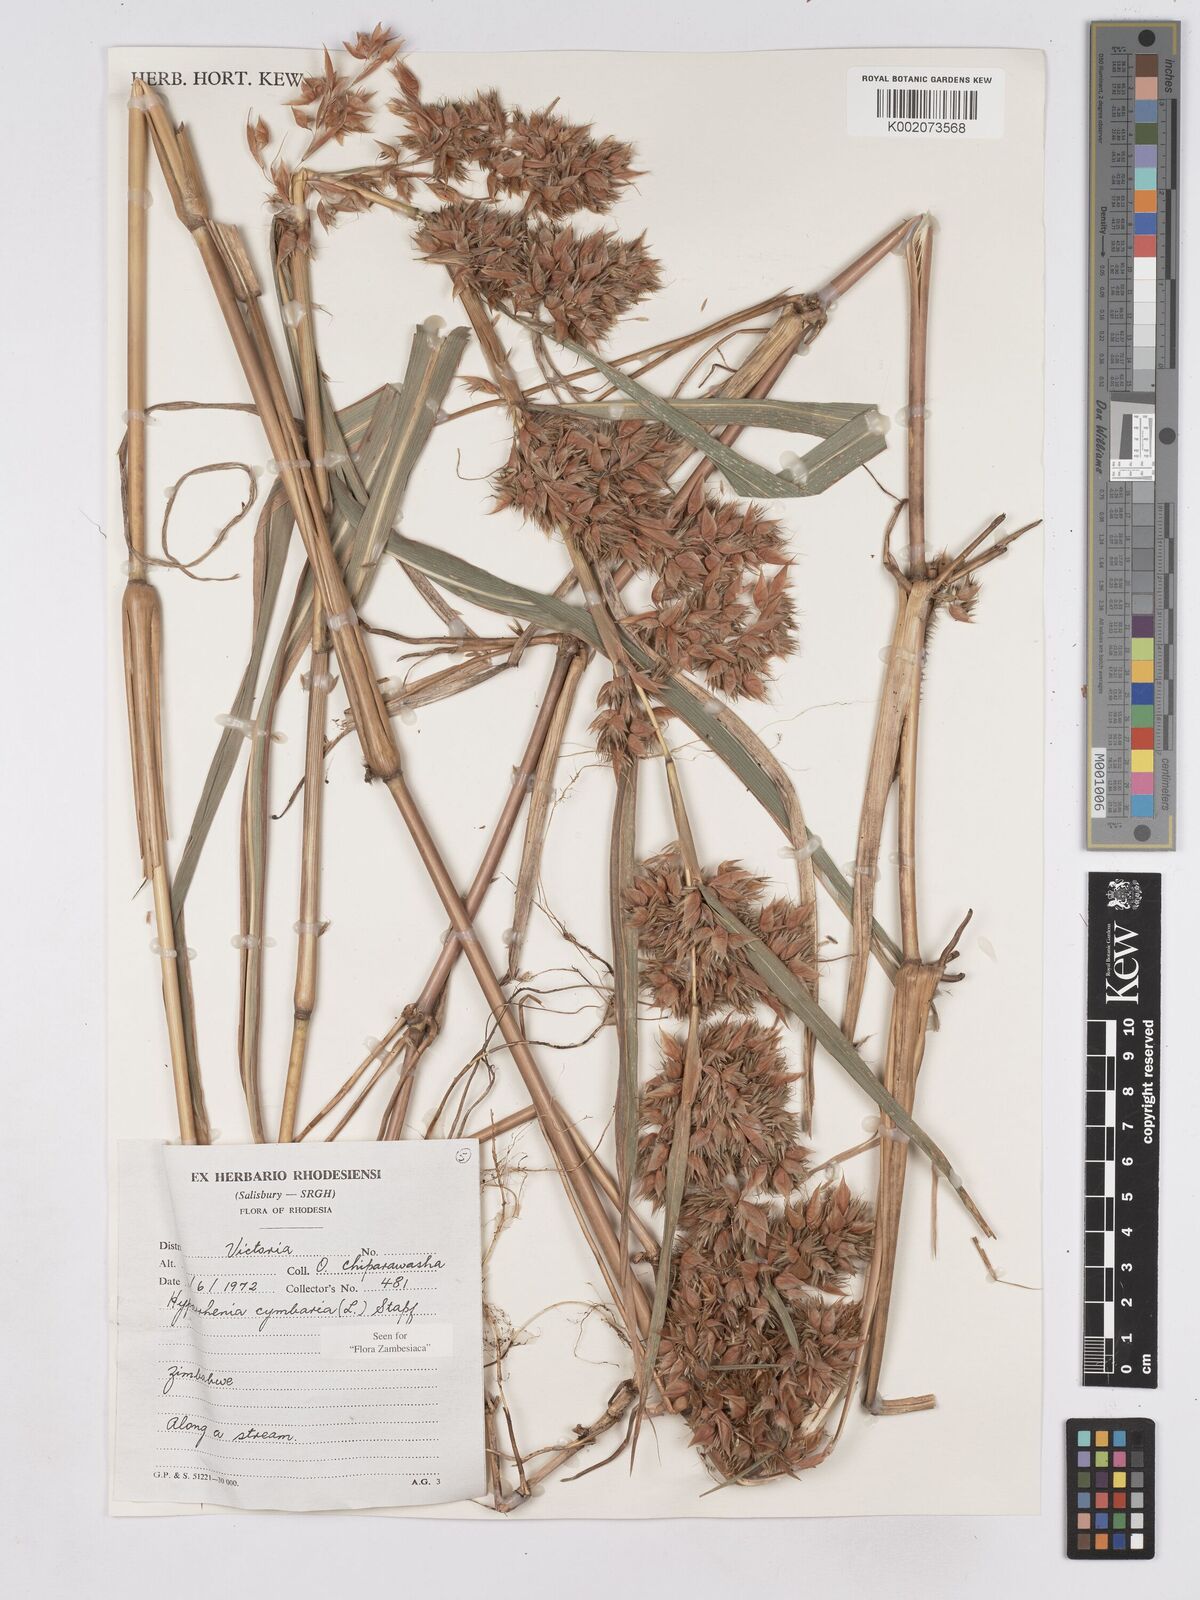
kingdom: Plantae
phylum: Tracheophyta
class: Liliopsida
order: Poales
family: Poaceae
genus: Hyparrhenia
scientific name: Hyparrhenia cymbaria
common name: Boat thatching grass
